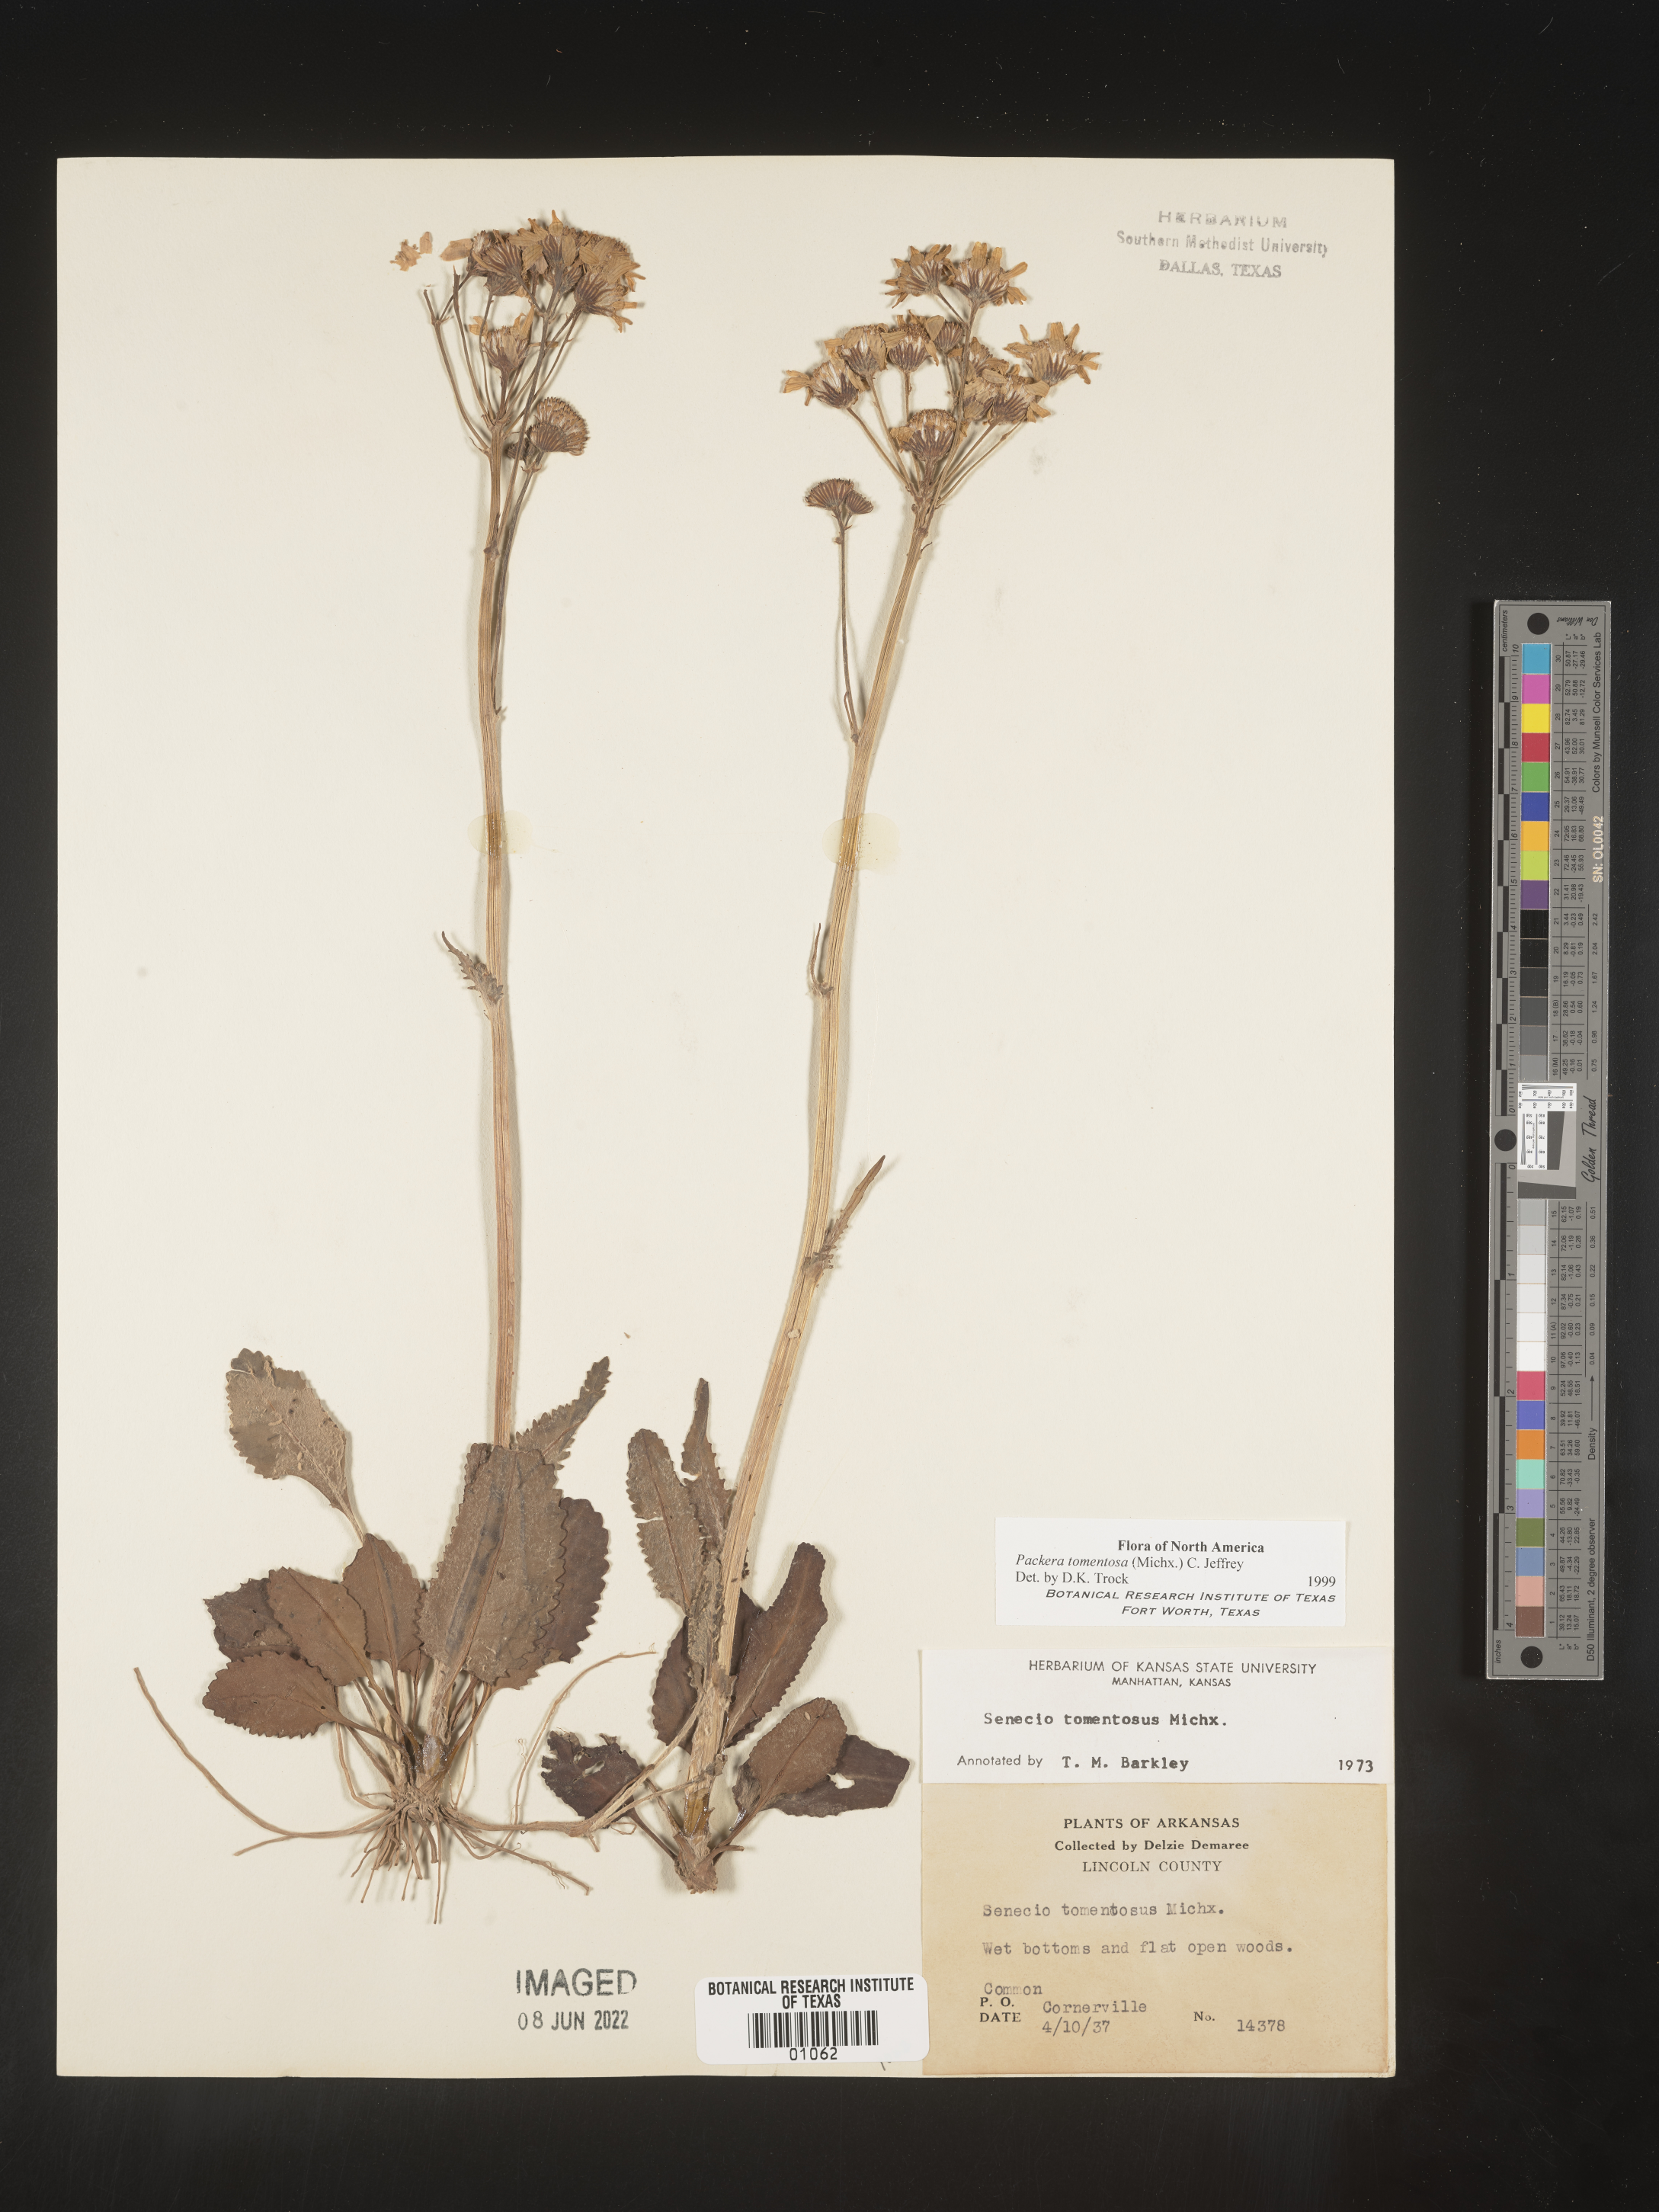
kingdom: Plantae
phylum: Tracheophyta
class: Magnoliopsida
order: Asterales
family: Asteraceae
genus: Packera
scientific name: Packera dubia
